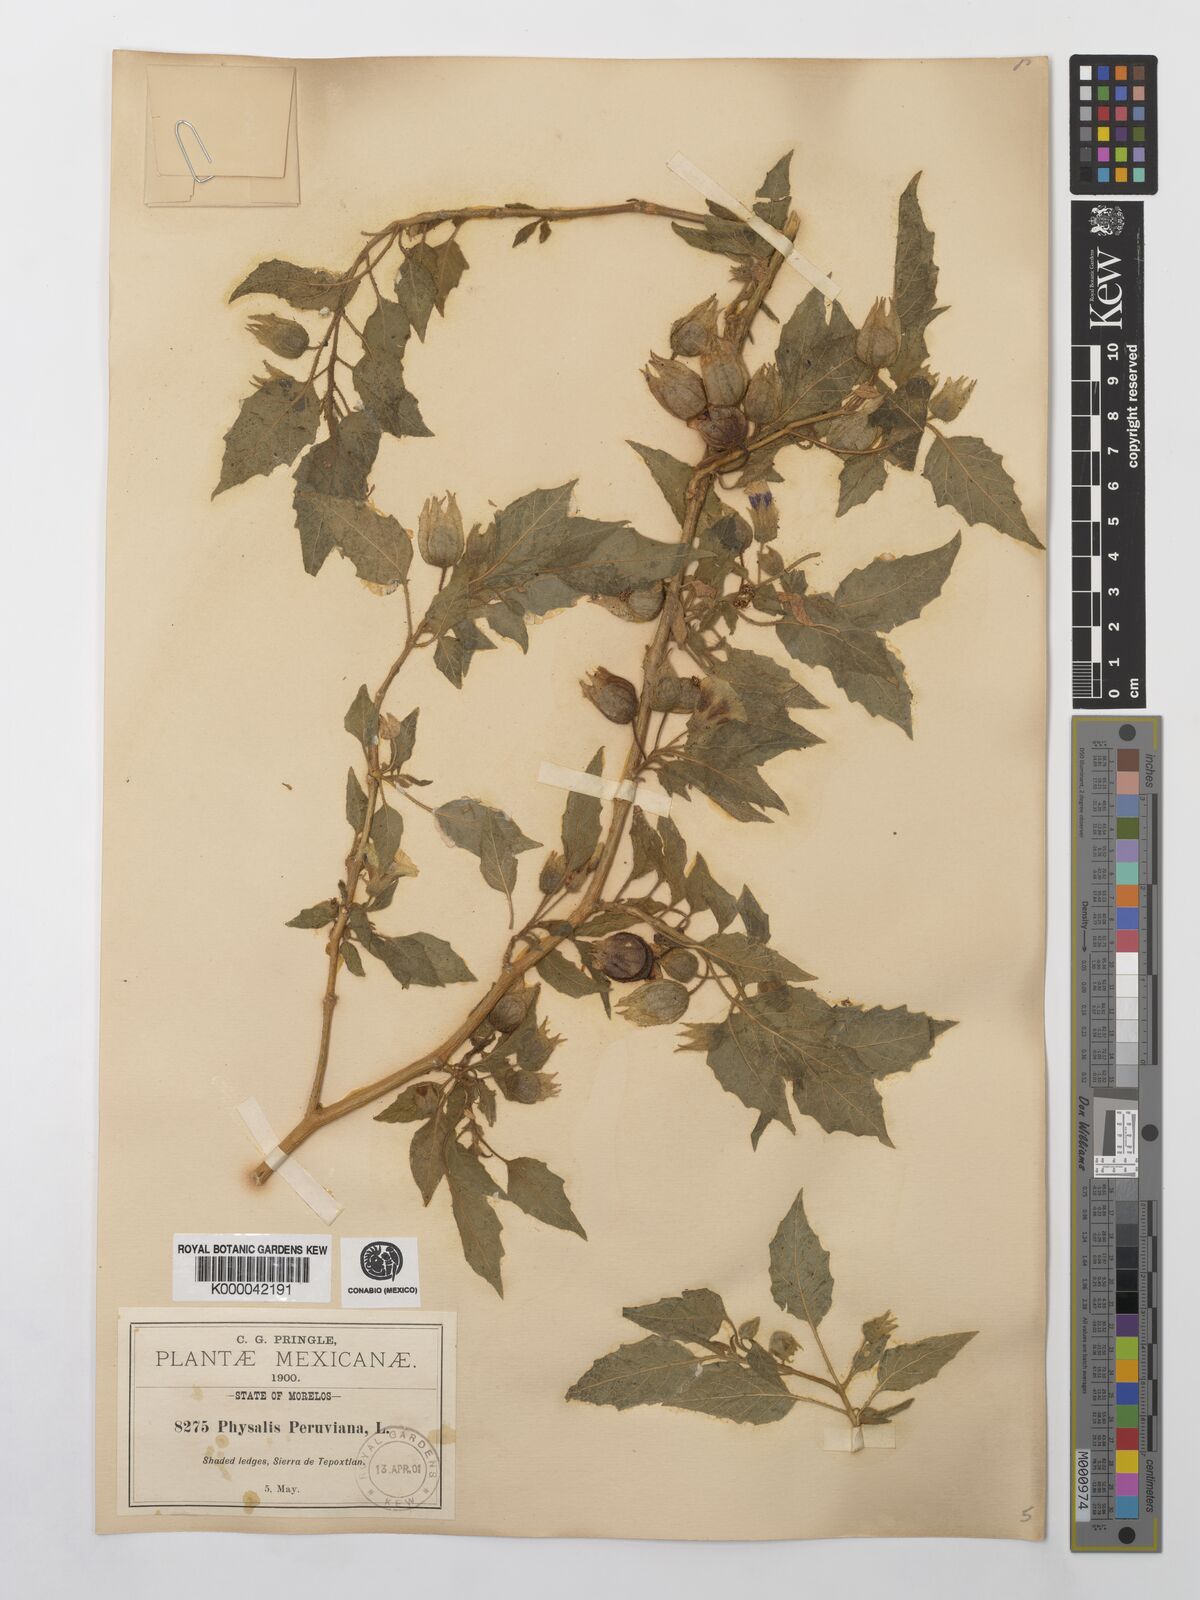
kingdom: Plantae
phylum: Tracheophyta
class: Magnoliopsida
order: Solanales
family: Solanaceae
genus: Physalis
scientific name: Physalis peruviana
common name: Cape-gooseberry
